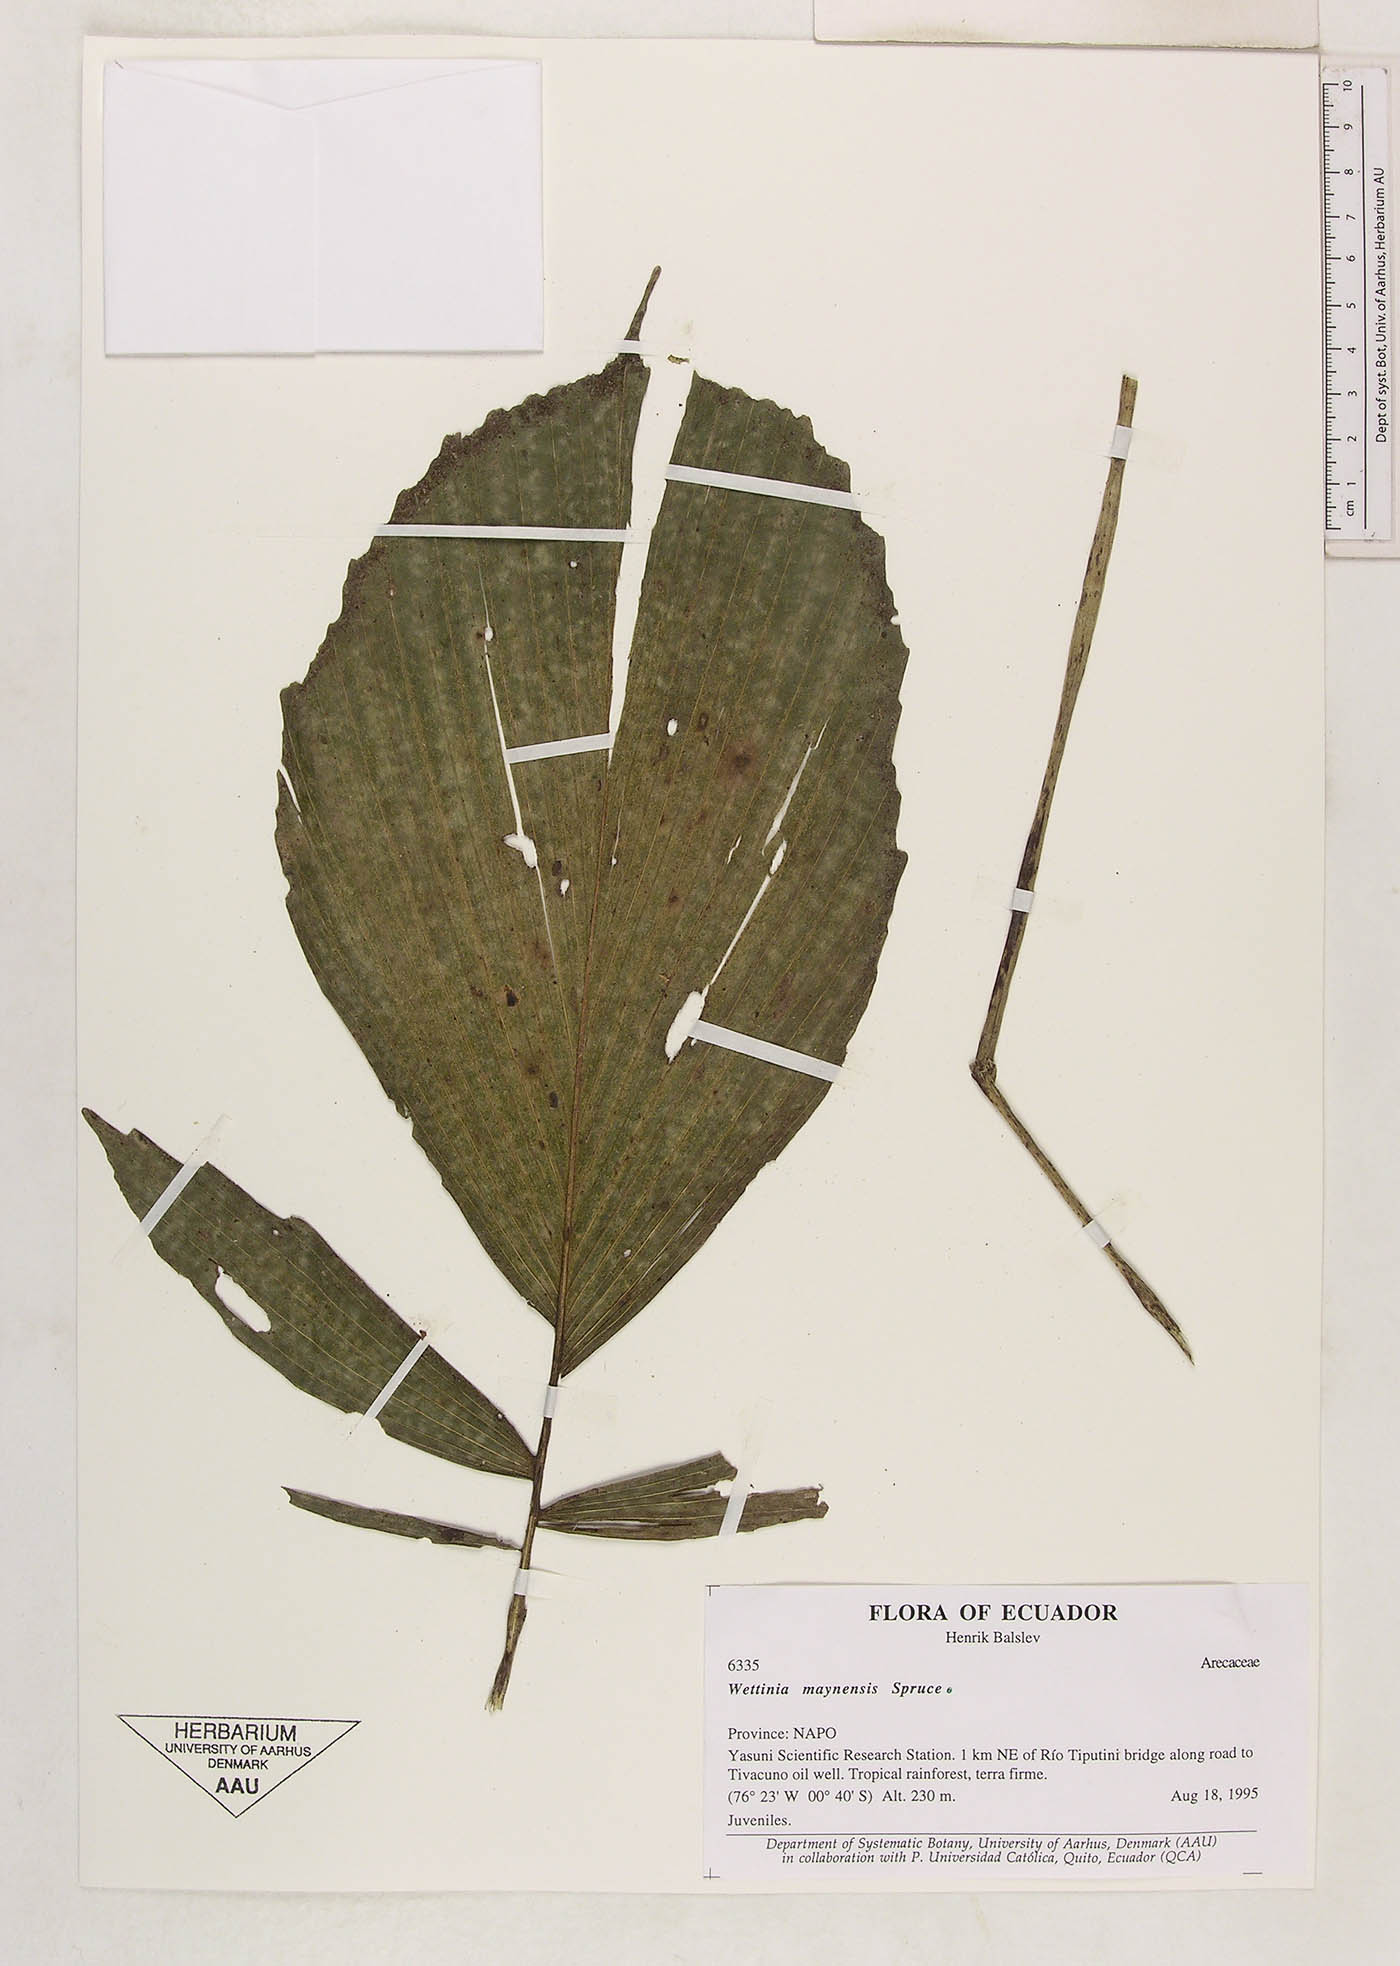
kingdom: Plantae
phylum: Tracheophyta
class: Liliopsida
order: Arecales
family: Arecaceae
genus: Wettinia
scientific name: Wettinia maynensis
